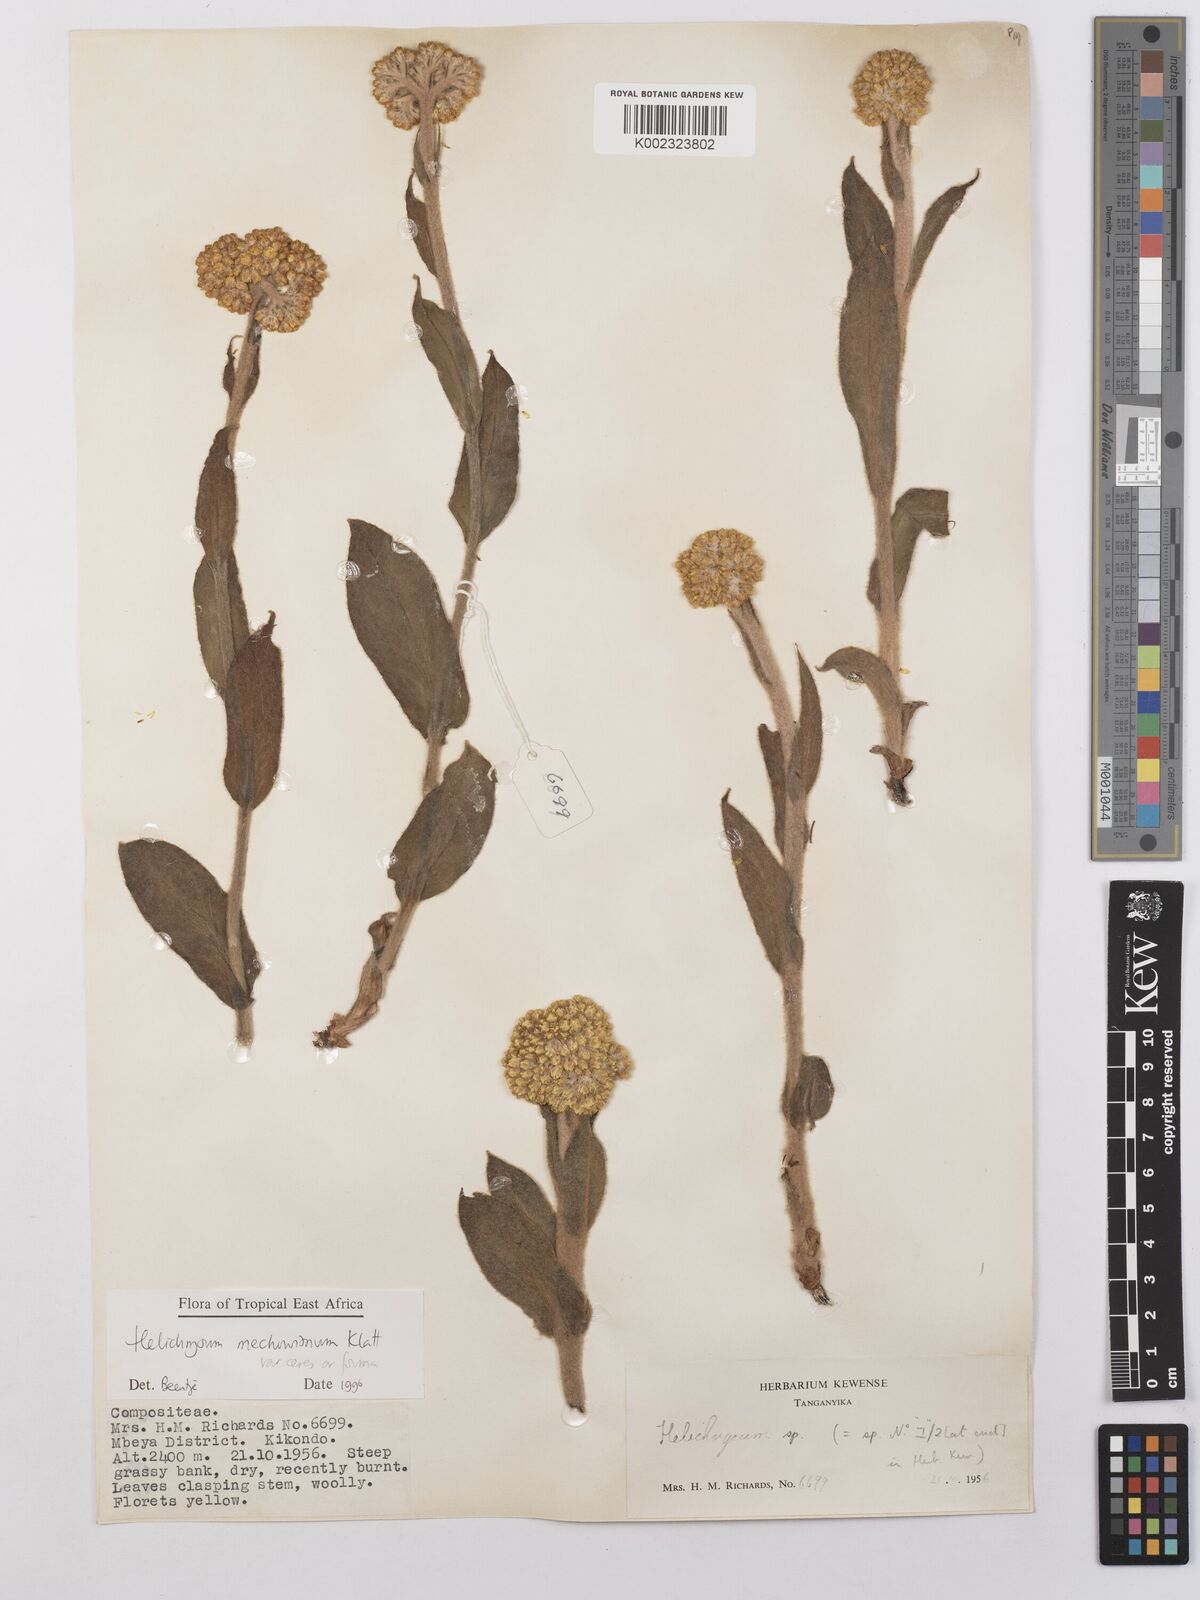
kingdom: Plantae
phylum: Tracheophyta
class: Magnoliopsida
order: Asterales
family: Asteraceae
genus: Helichrysum
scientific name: Helichrysum mechowianum
